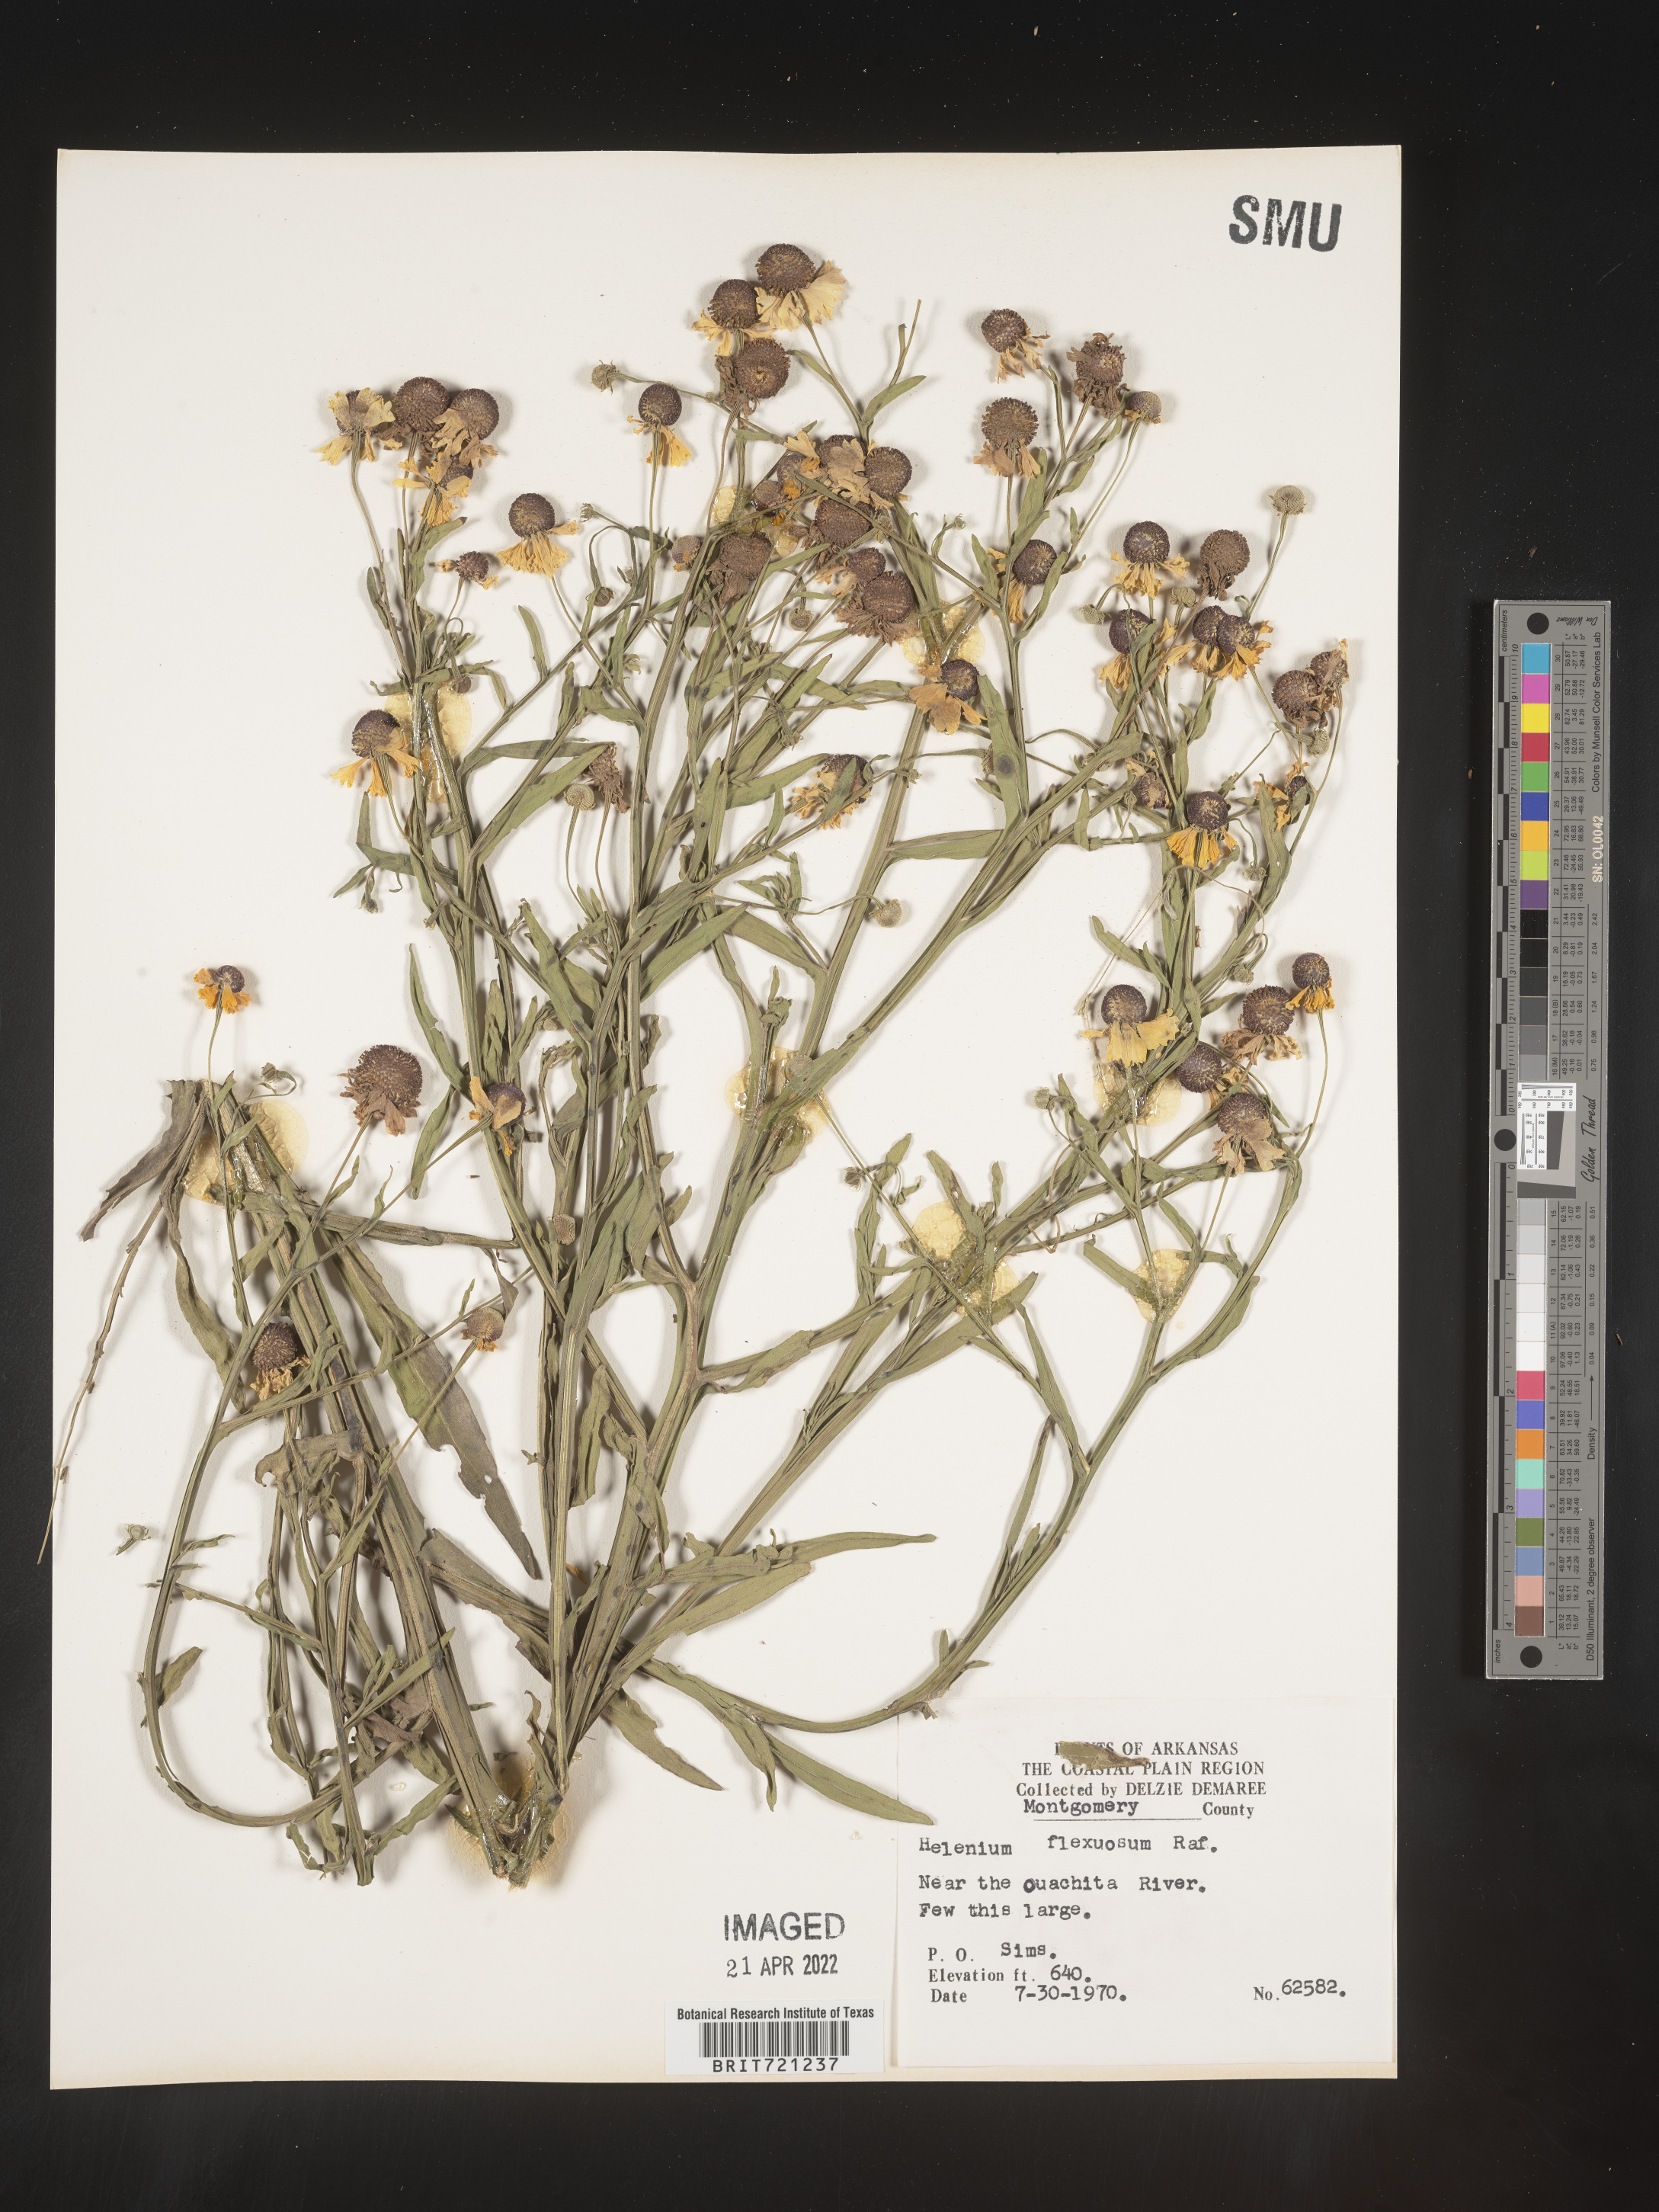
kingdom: Plantae
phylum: Tracheophyta
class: Magnoliopsida
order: Asterales
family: Asteraceae
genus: Helenium
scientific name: Helenium flexuosum
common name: Naked-flowered sneezeweed
